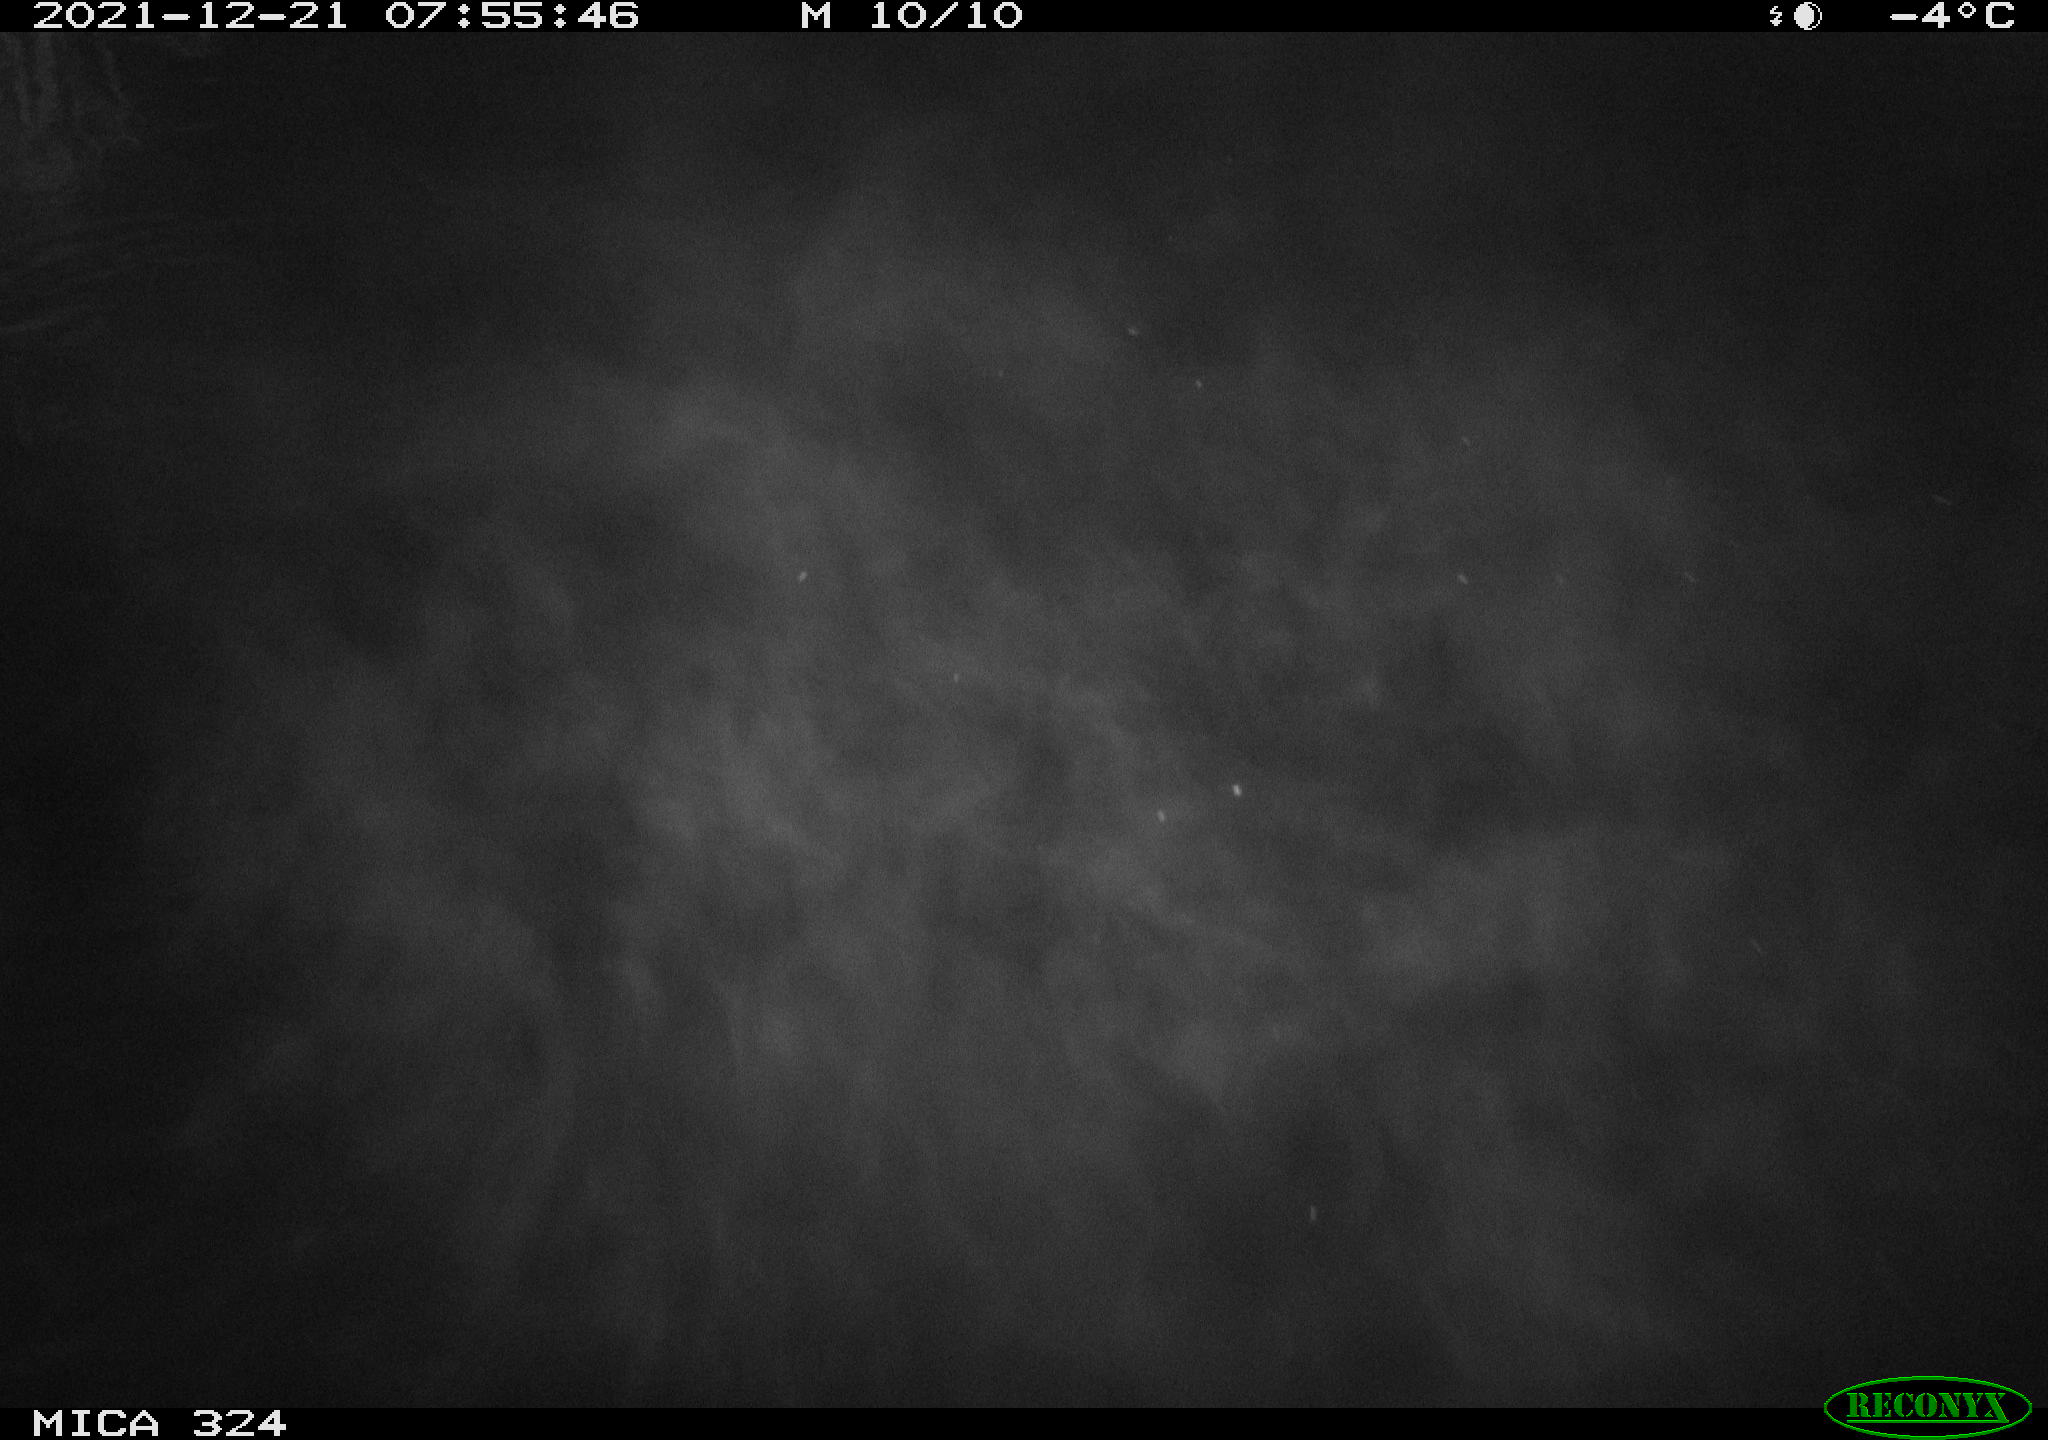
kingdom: Animalia
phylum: Chordata
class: Mammalia
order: Rodentia
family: Cricetidae
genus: Ondatra
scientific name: Ondatra zibethicus
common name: Muskrat
